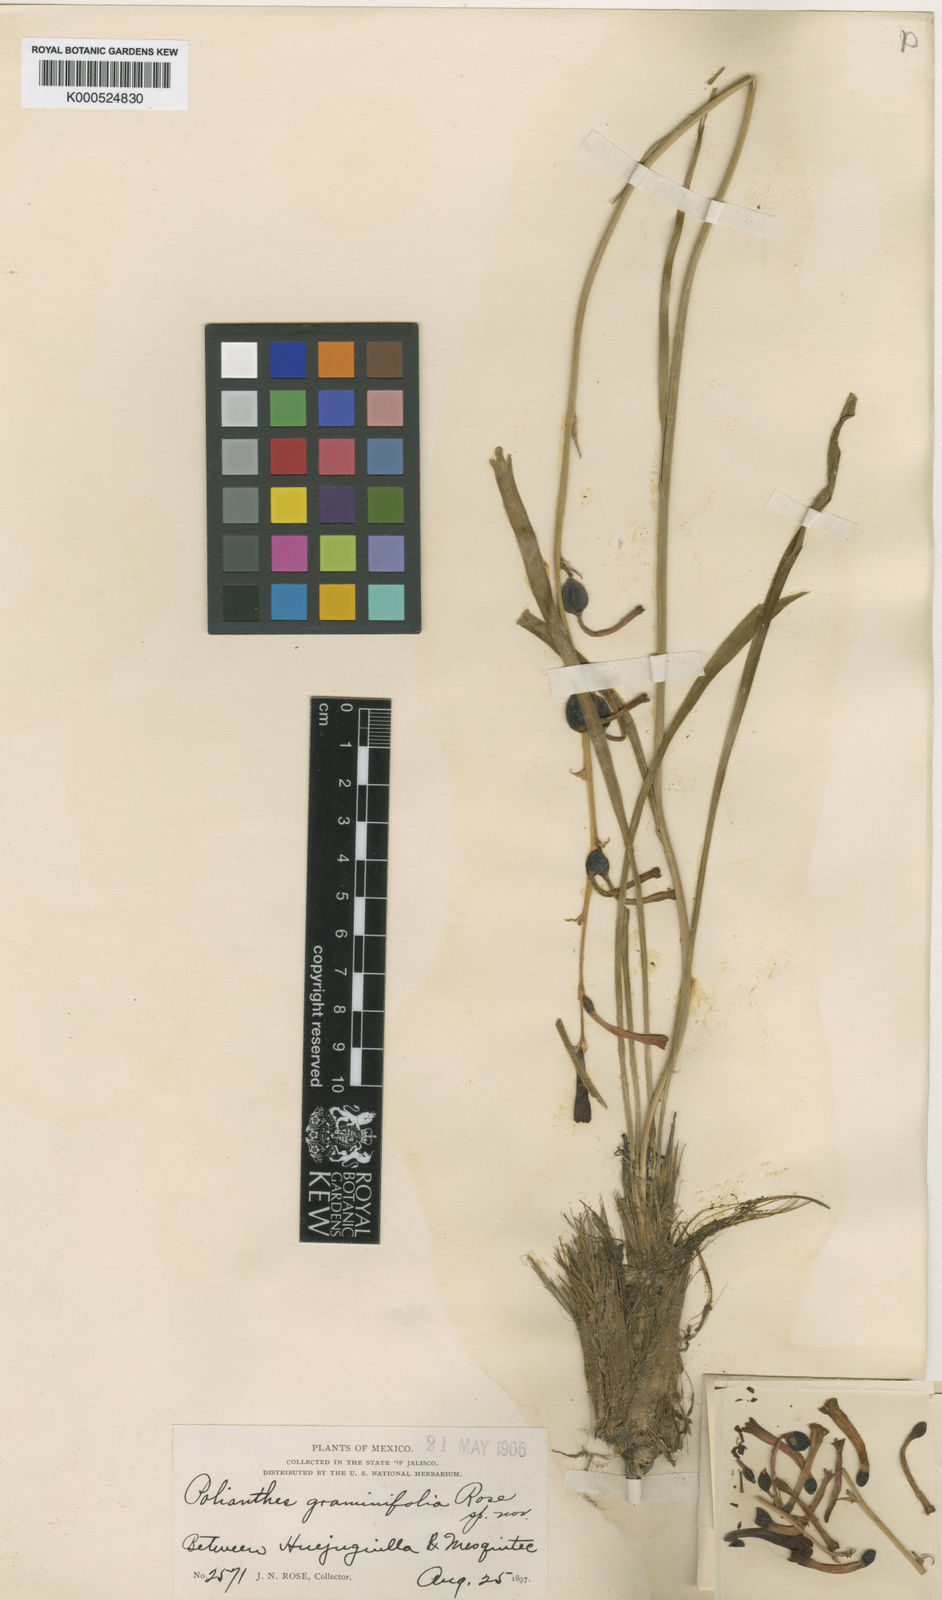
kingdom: Plantae
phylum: Tracheophyta
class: Liliopsida
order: Asparagales
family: Asparagaceae
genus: Agave
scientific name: Agave graminifolia
